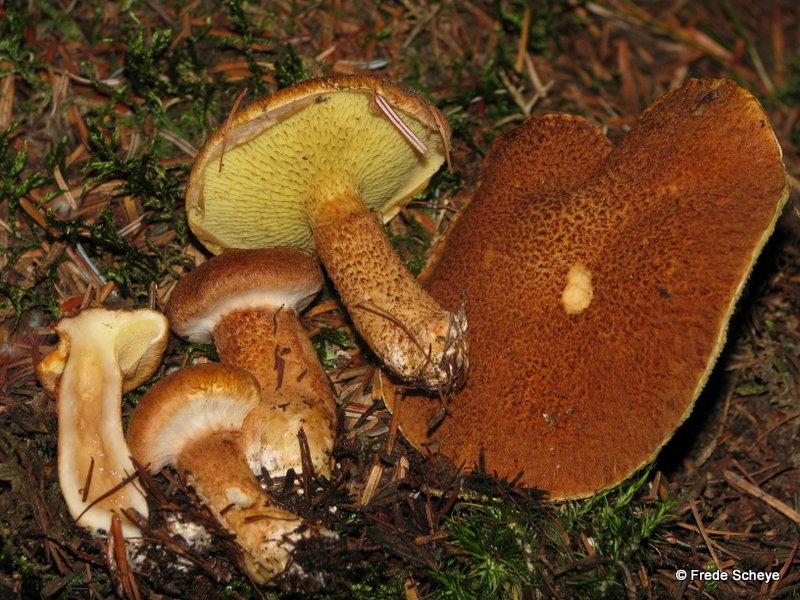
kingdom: Fungi
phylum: Basidiomycota
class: Agaricomycetes
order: Boletales
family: Suillaceae
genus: Suillus
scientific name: Suillus cavipes
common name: hulstokket slimrørhat
